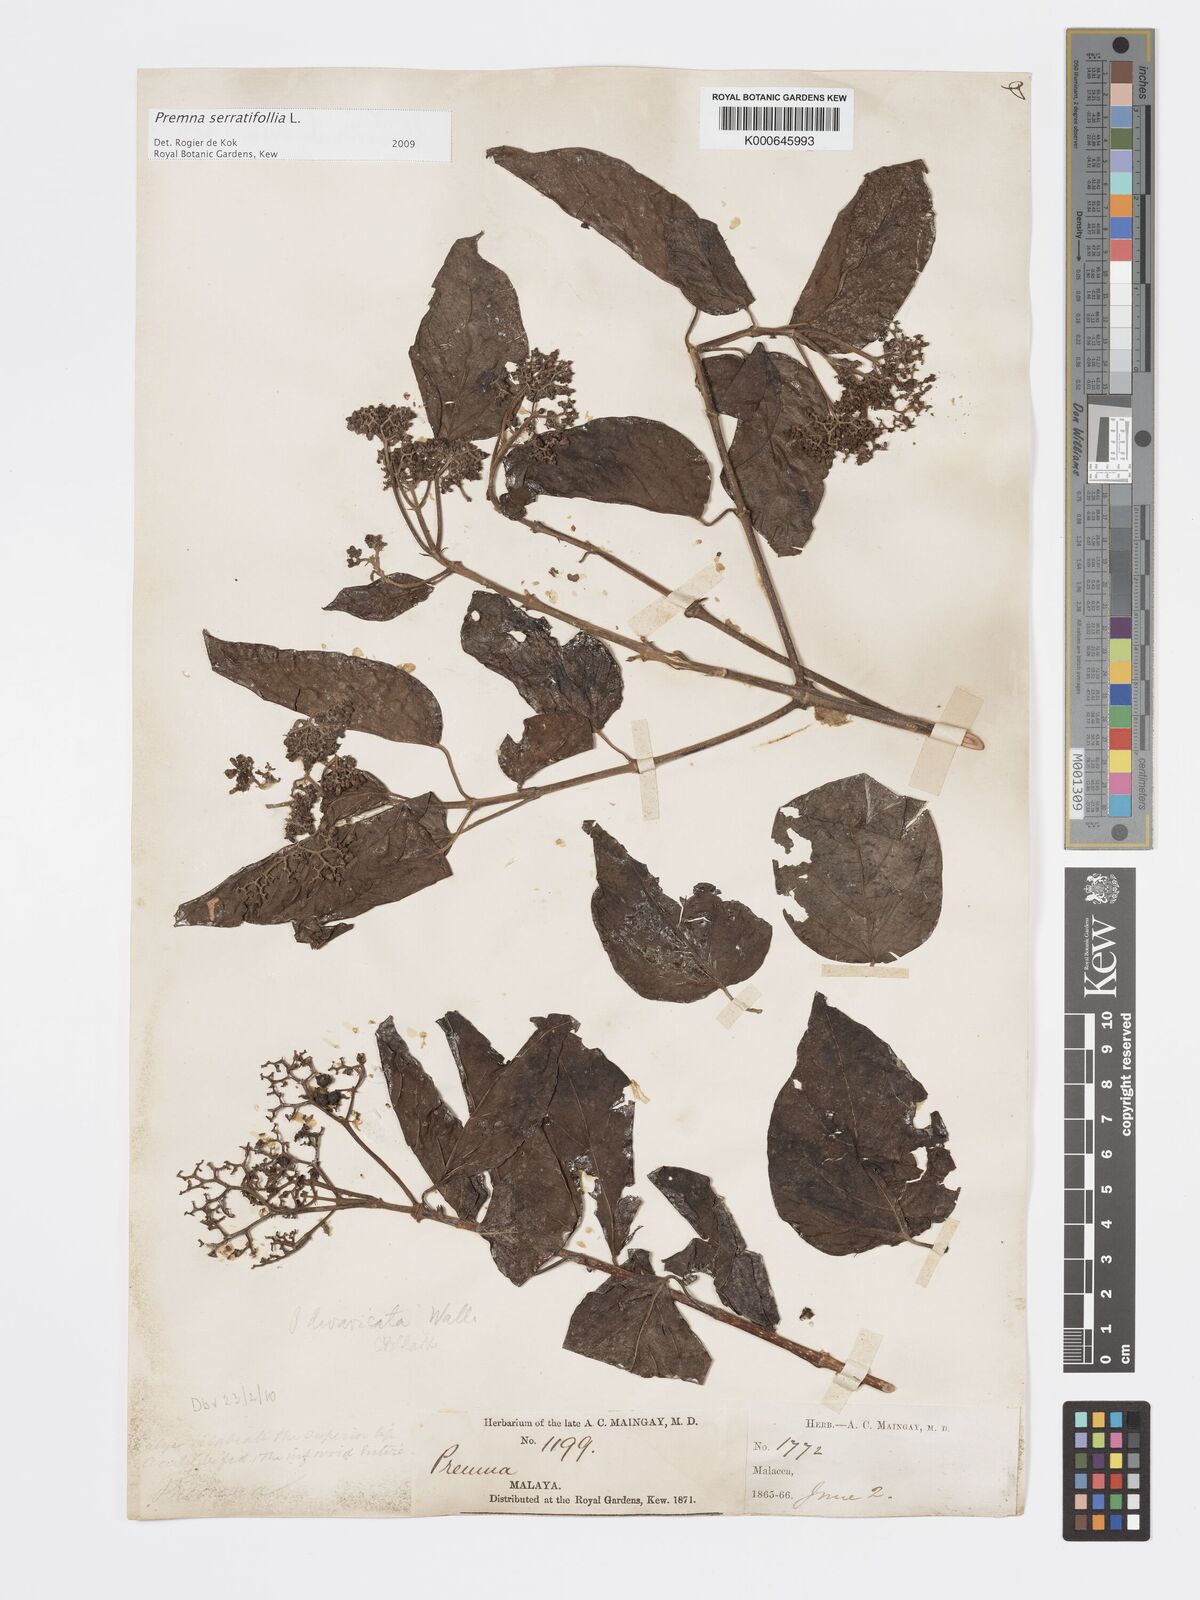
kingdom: Plantae
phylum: Tracheophyta
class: Magnoliopsida
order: Lamiales
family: Lamiaceae
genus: Premna
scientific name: Premna serratifolia
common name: Bastard guelder
